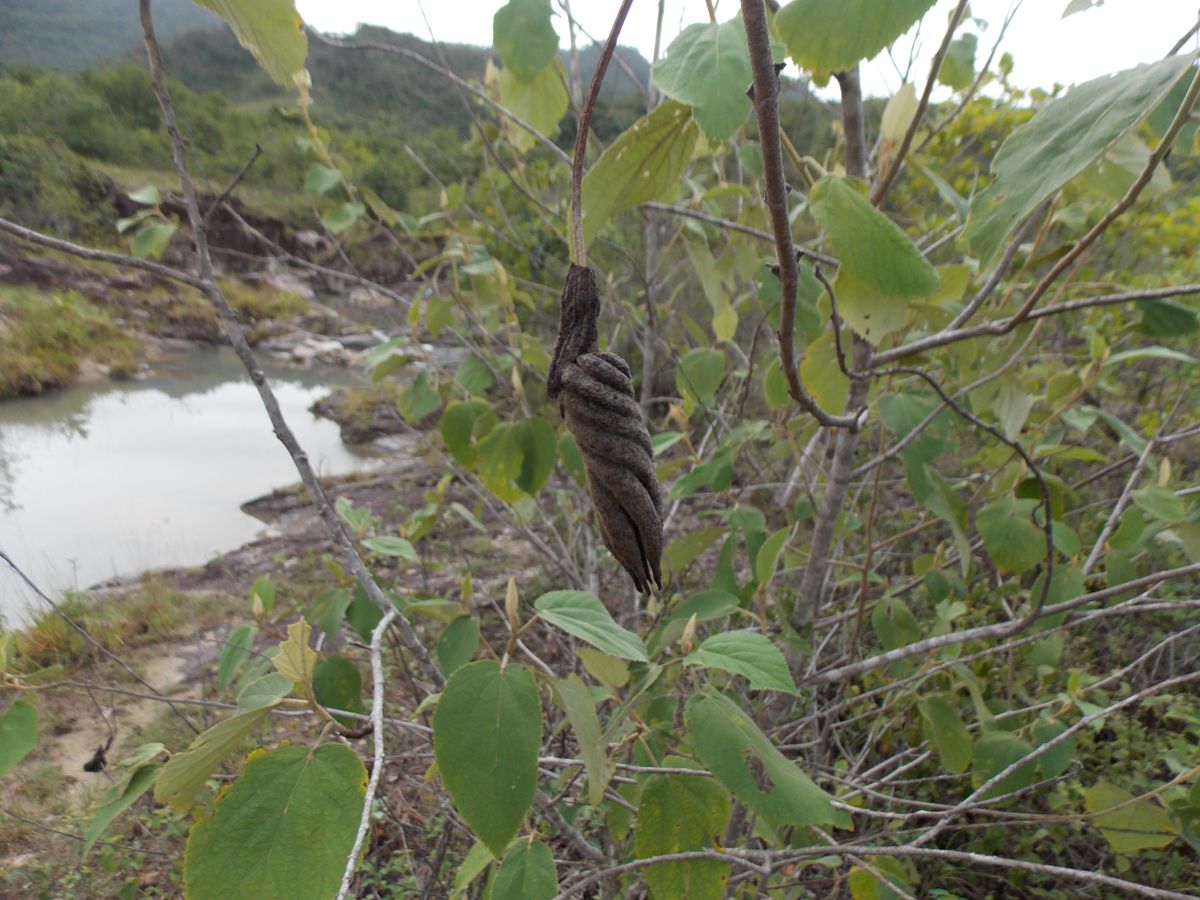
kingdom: Plantae
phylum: Tracheophyta
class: Magnoliopsida
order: Malvales
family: Malvaceae
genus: Helicteres
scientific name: Helicteres baruensis
